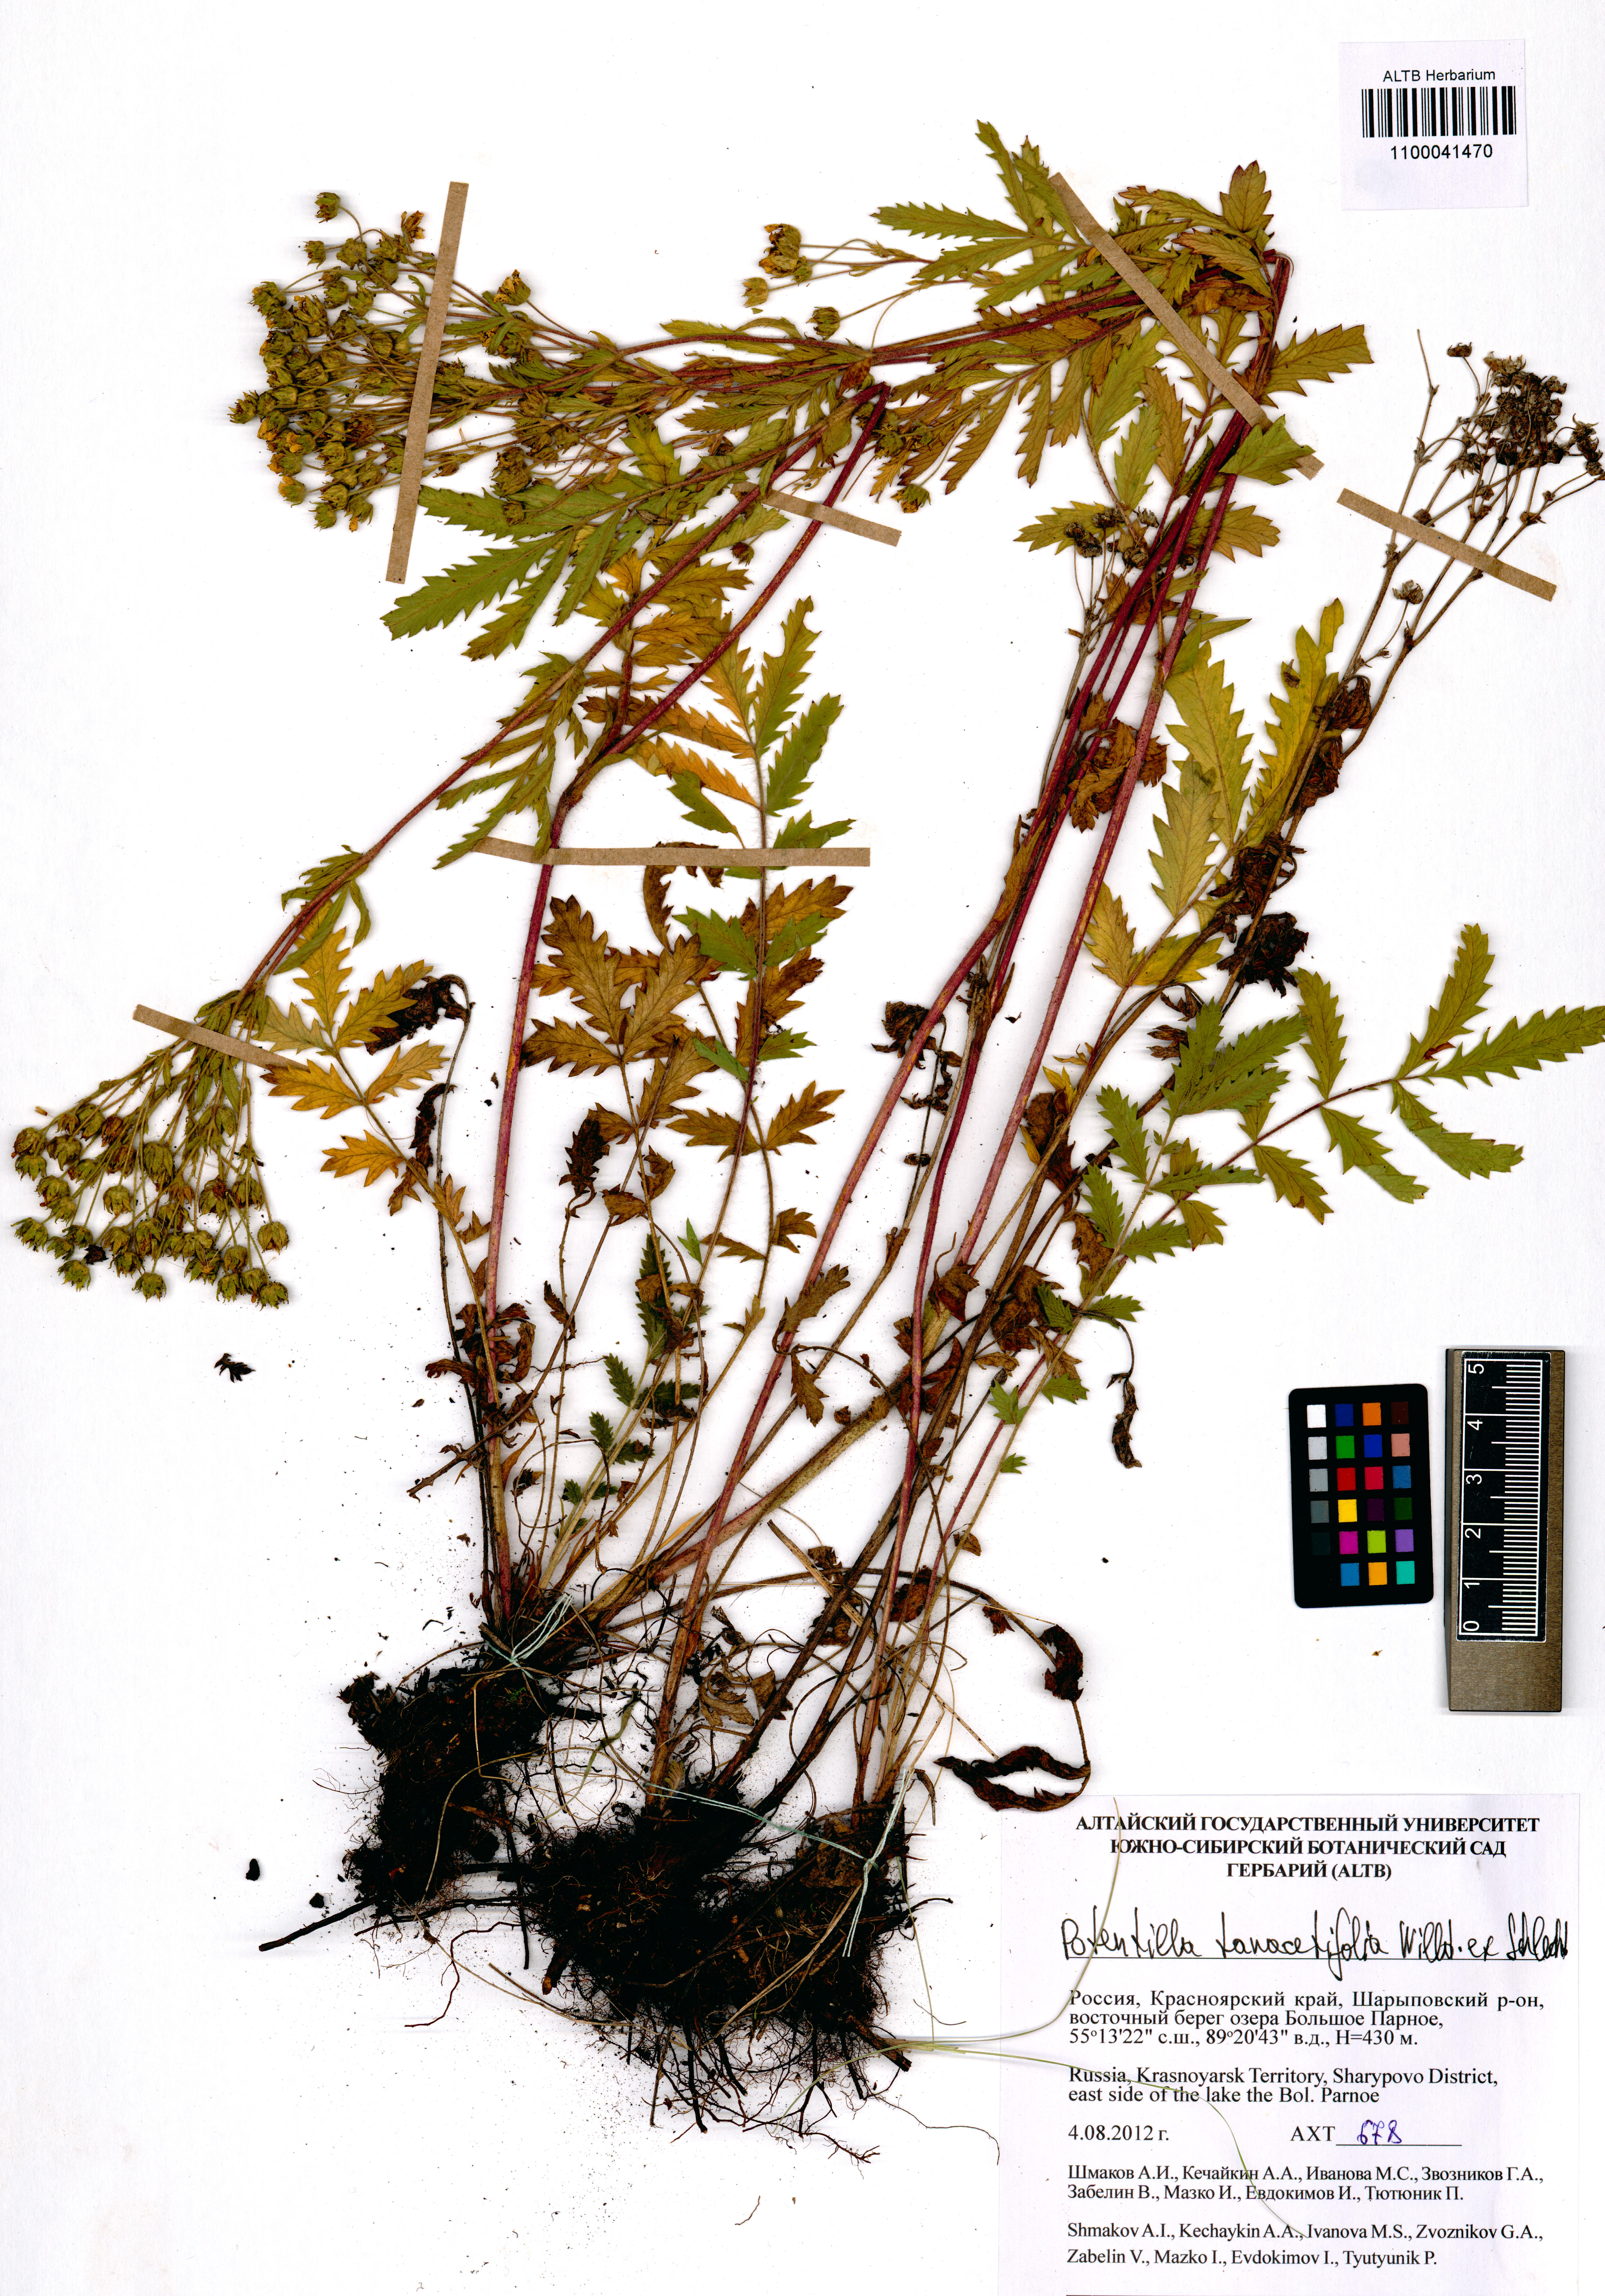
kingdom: Plantae
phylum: Tracheophyta
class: Magnoliopsida
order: Rosales
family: Rosaceae
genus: Potentilla
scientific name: Potentilla tanacetifolia
